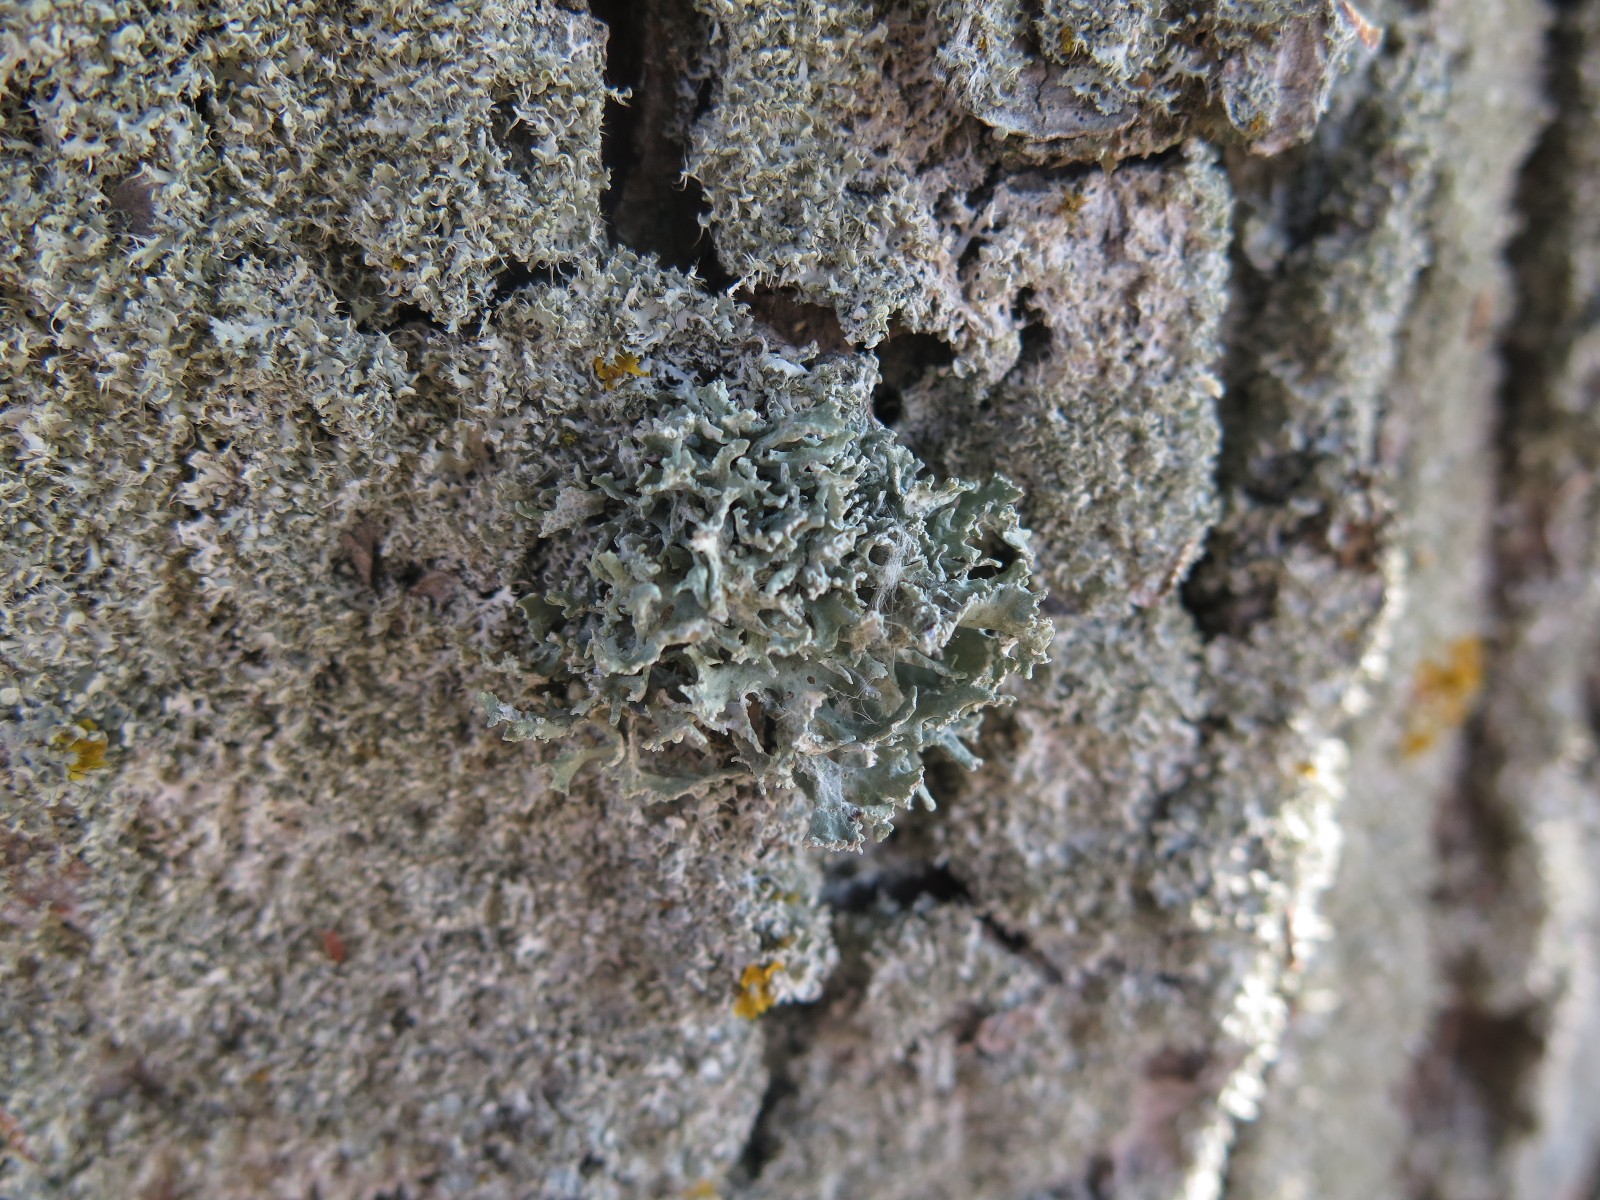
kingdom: Fungi
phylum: Ascomycota
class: Lecanoromycetes
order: Lecanorales
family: Parmeliaceae
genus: Evernia
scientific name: Evernia prunastri
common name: almindelig slåenlav
